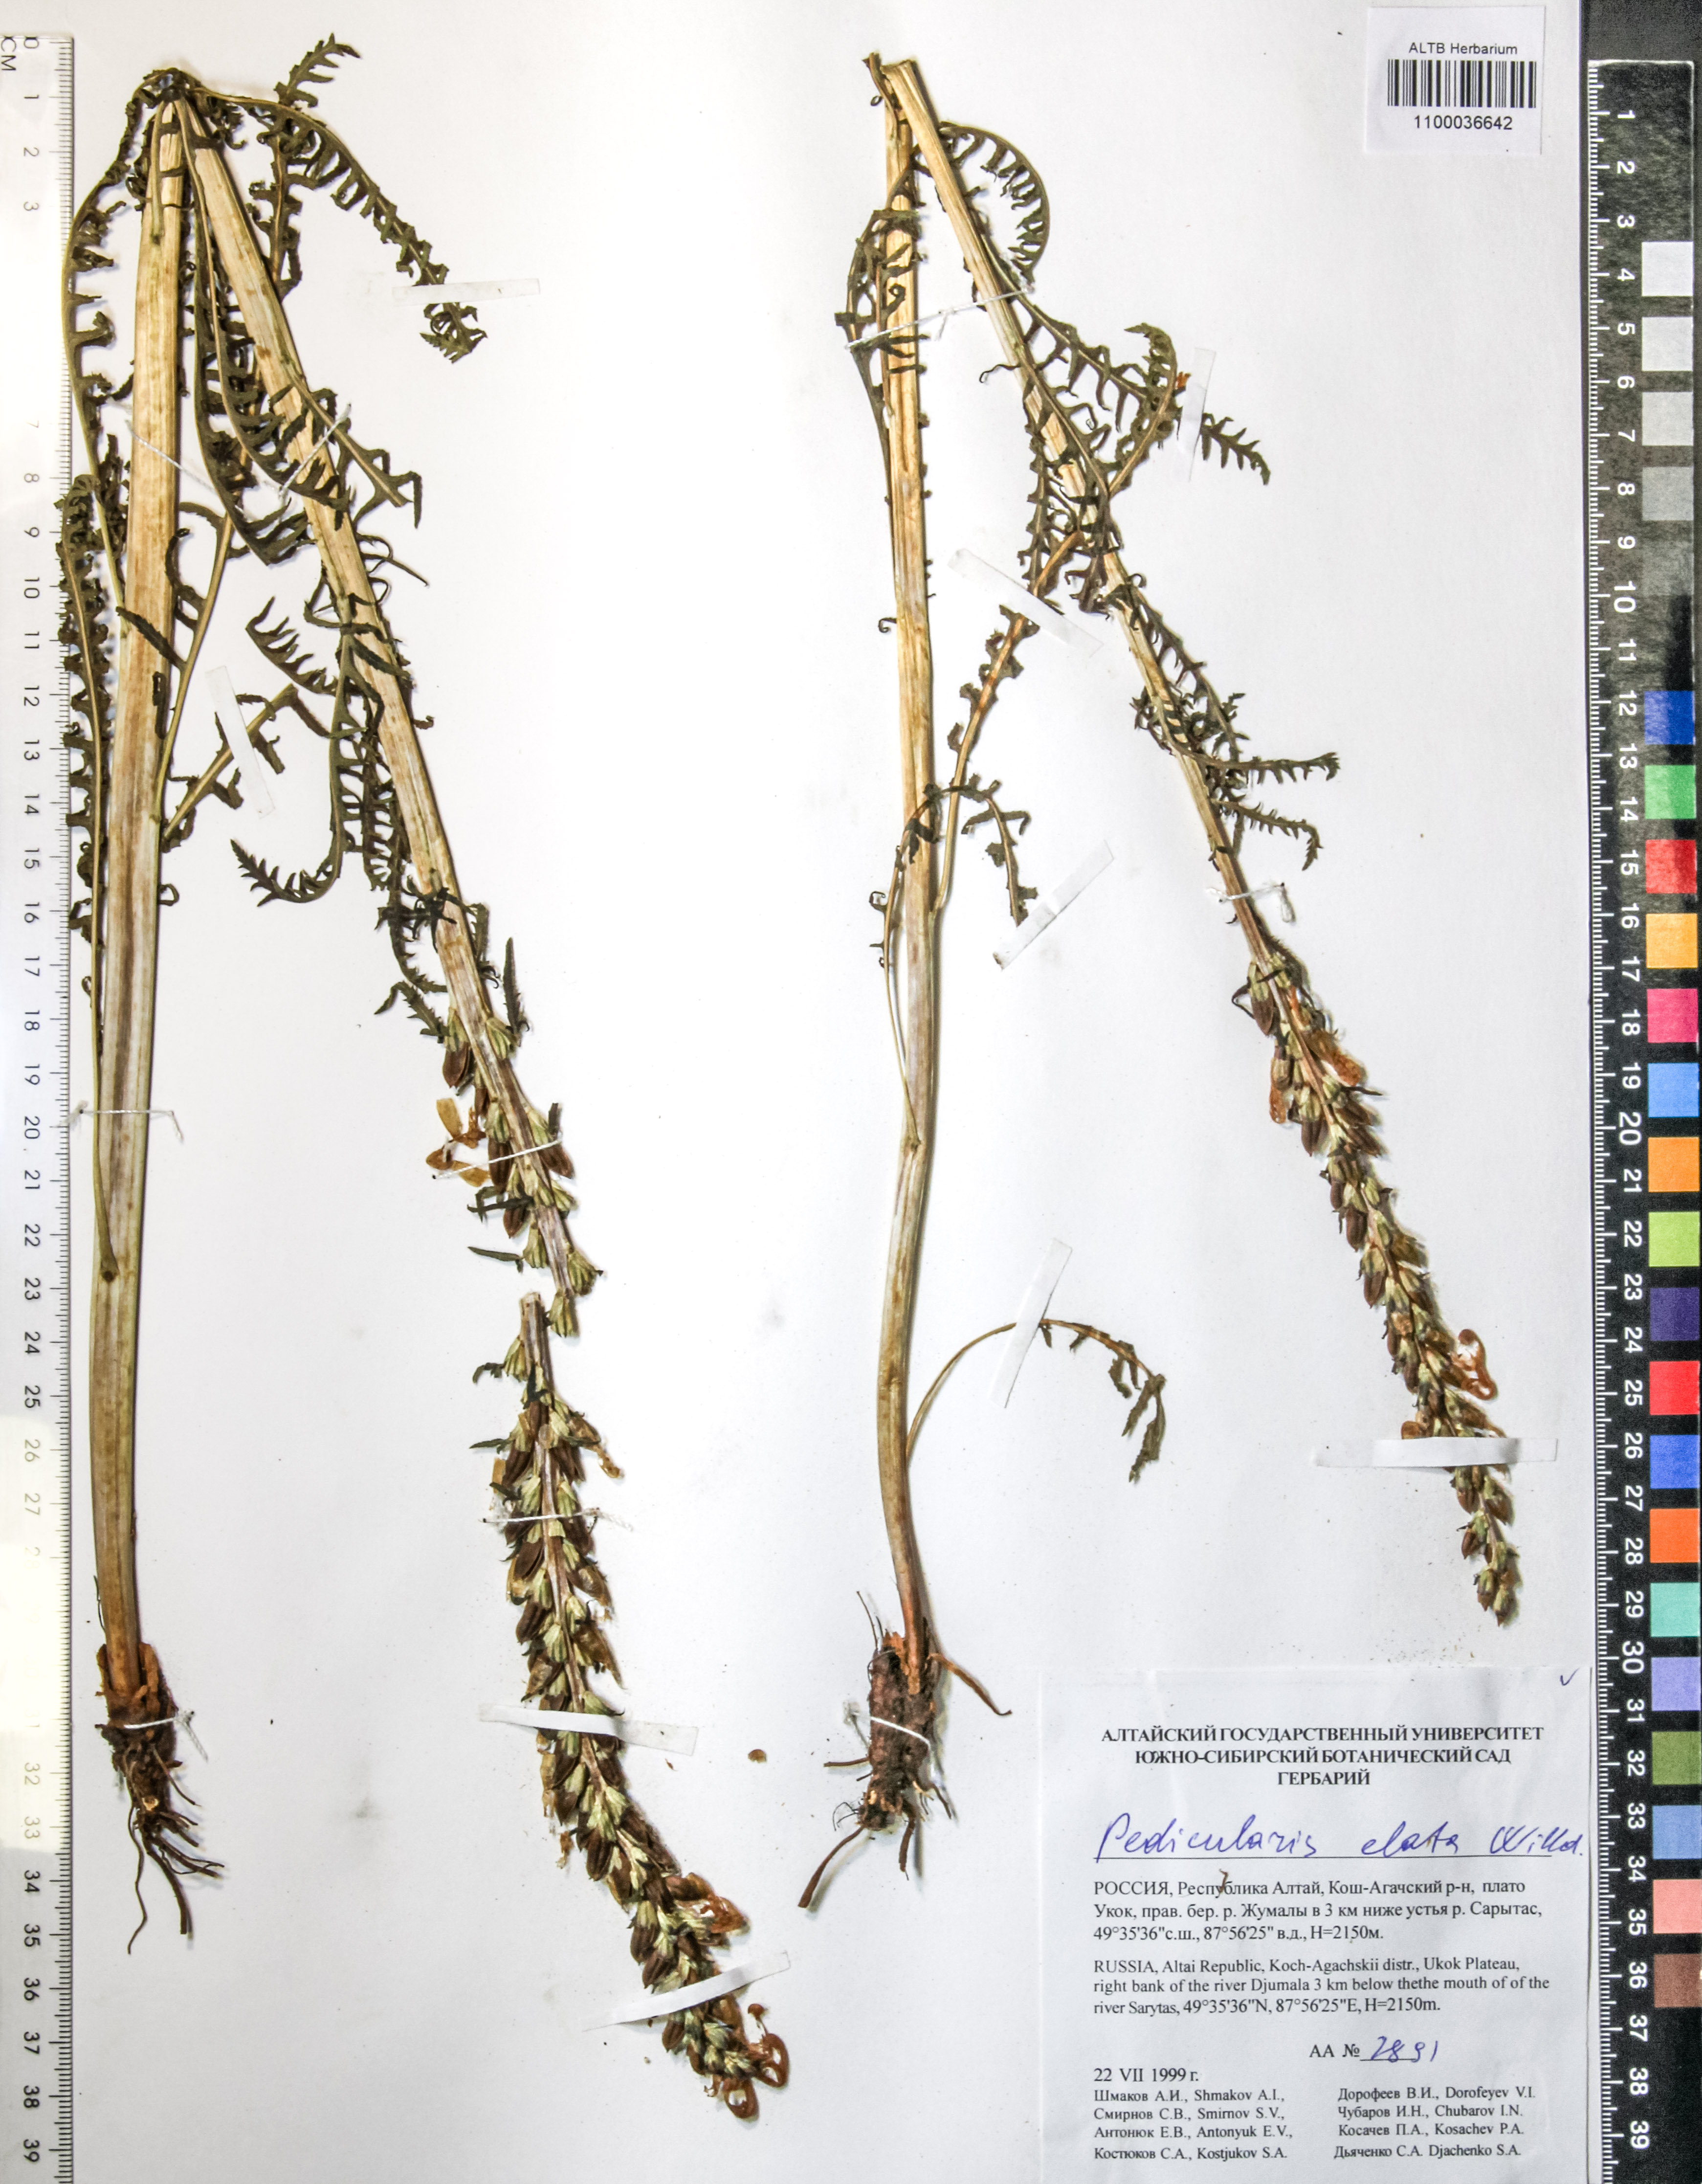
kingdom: Plantae
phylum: Tracheophyta
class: Magnoliopsida
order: Lamiales
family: Orobanchaceae
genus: Pedicularis
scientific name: Pedicularis elata
